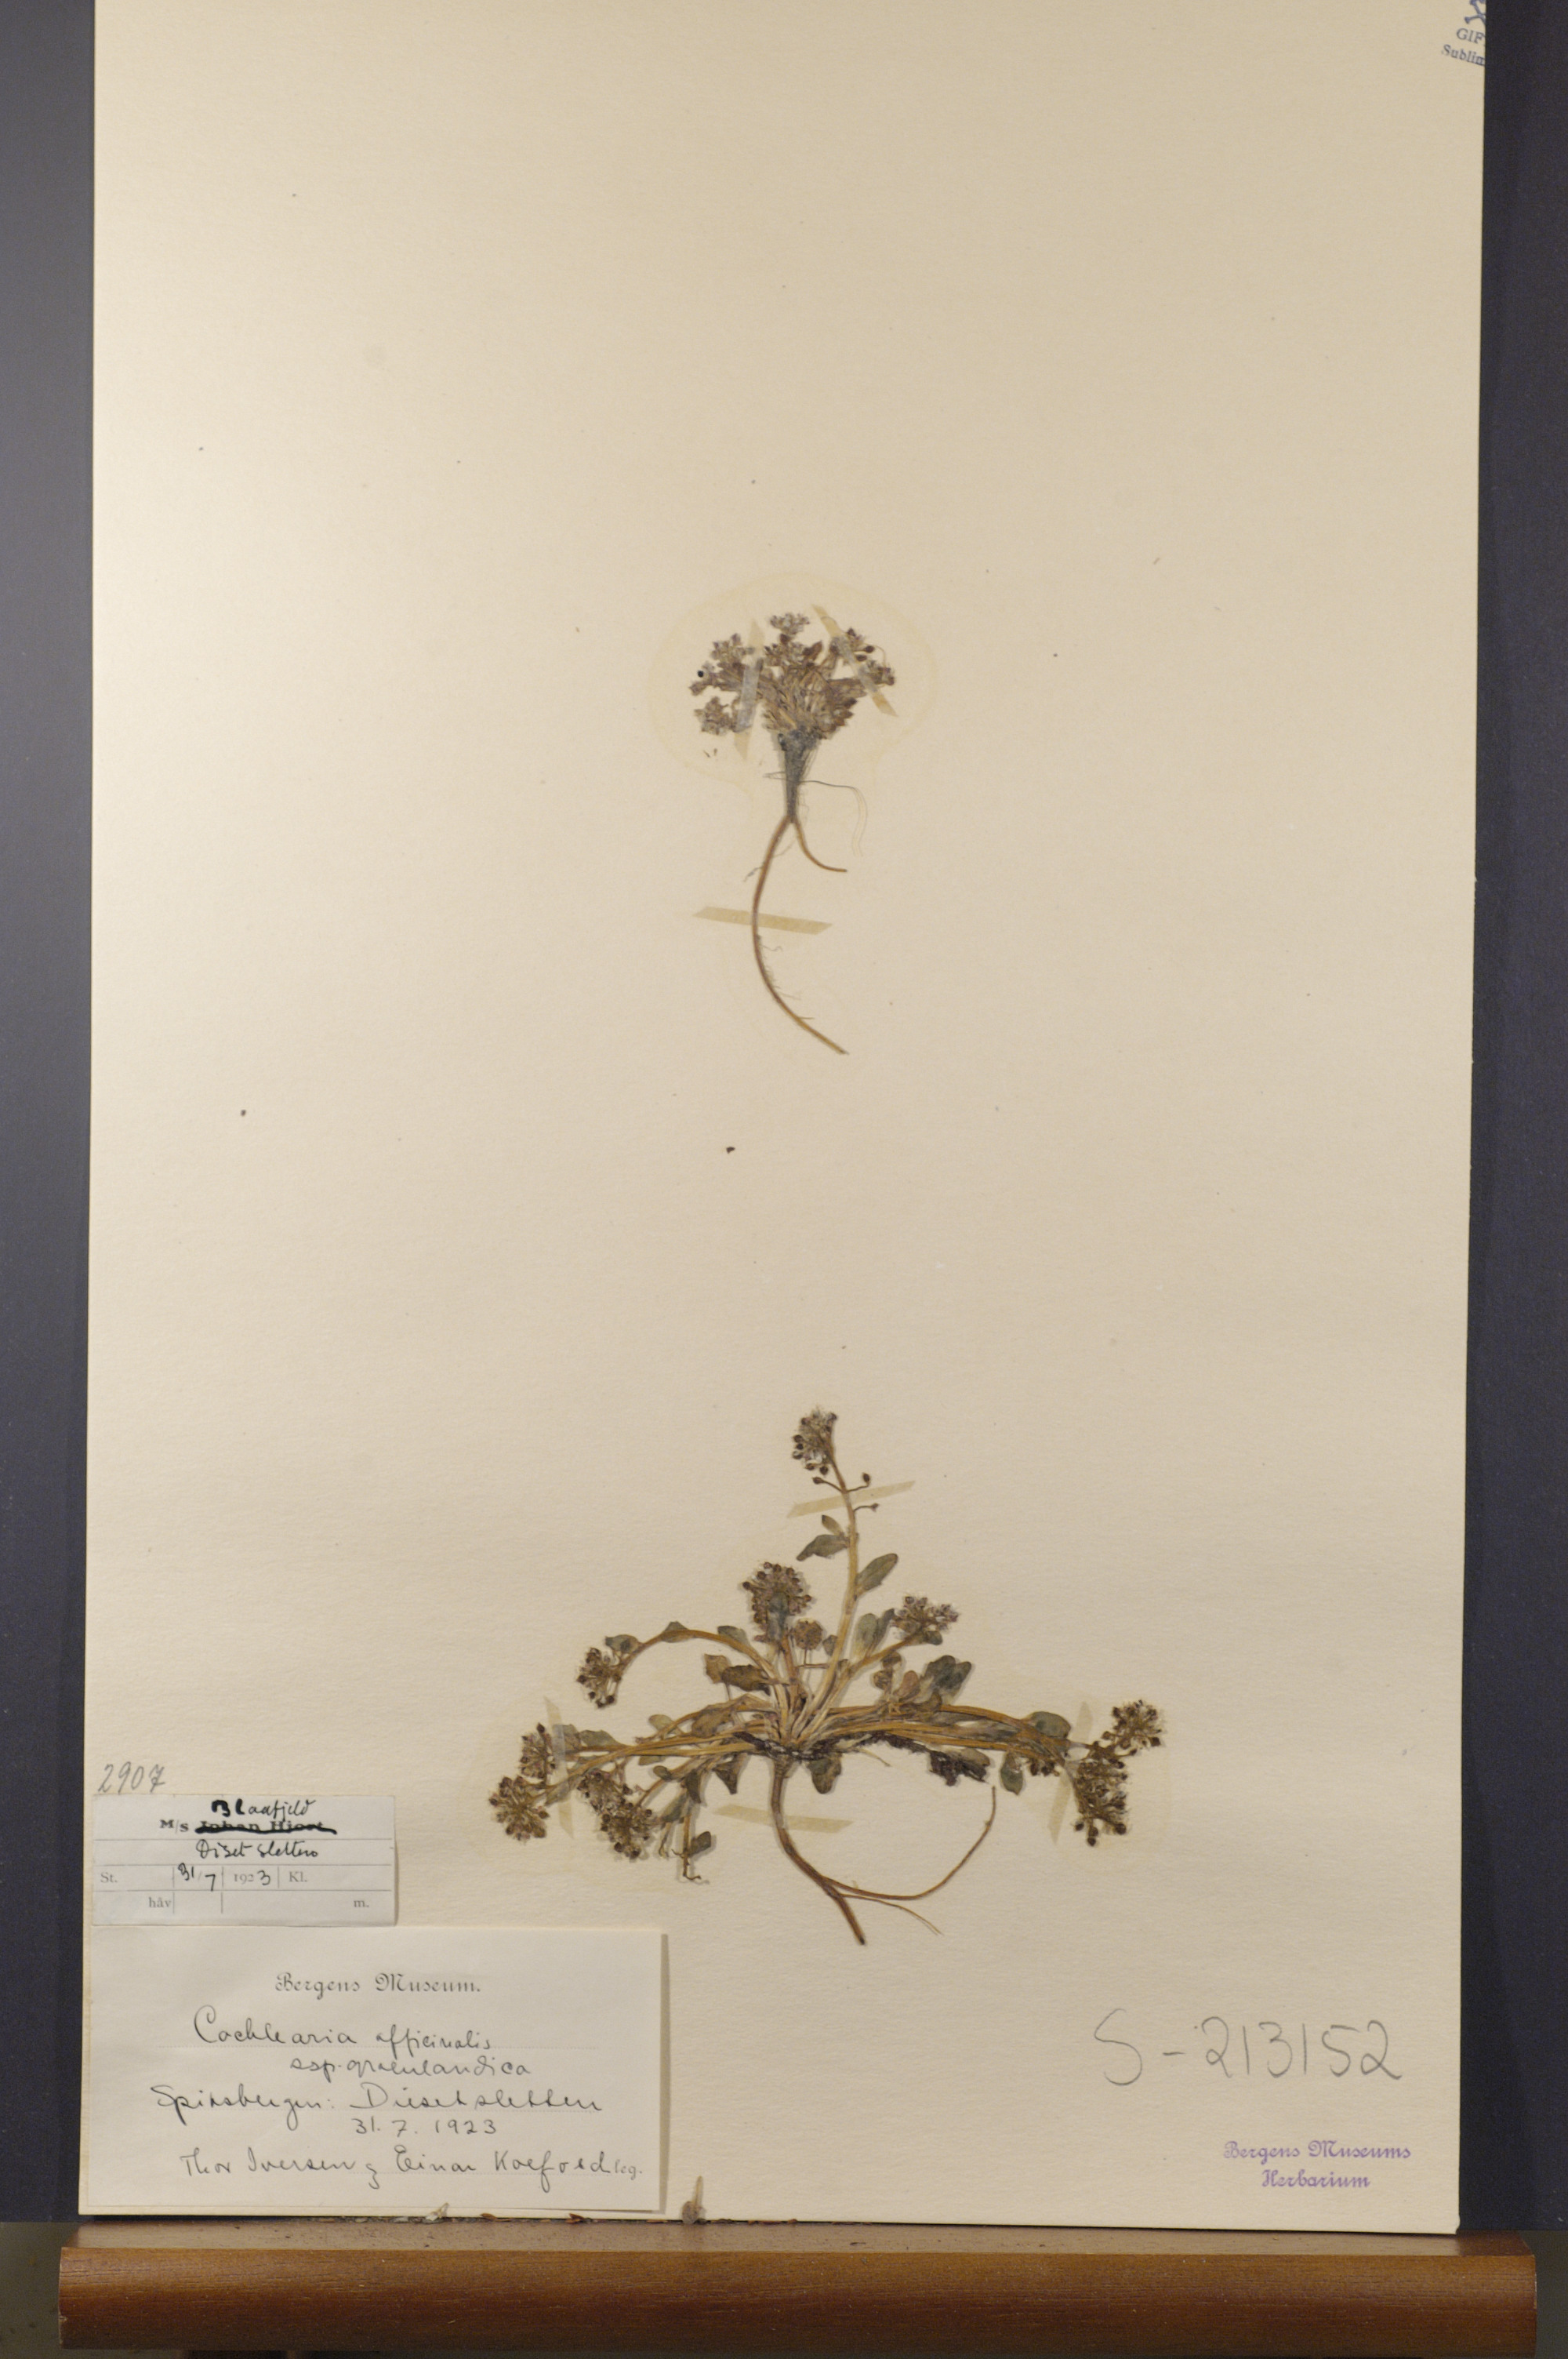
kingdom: Plantae
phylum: Tracheophyta
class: Magnoliopsida
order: Brassicales
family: Brassicaceae
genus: Cochlearia
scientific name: Cochlearia groenlandica
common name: Danish scurvygrass
